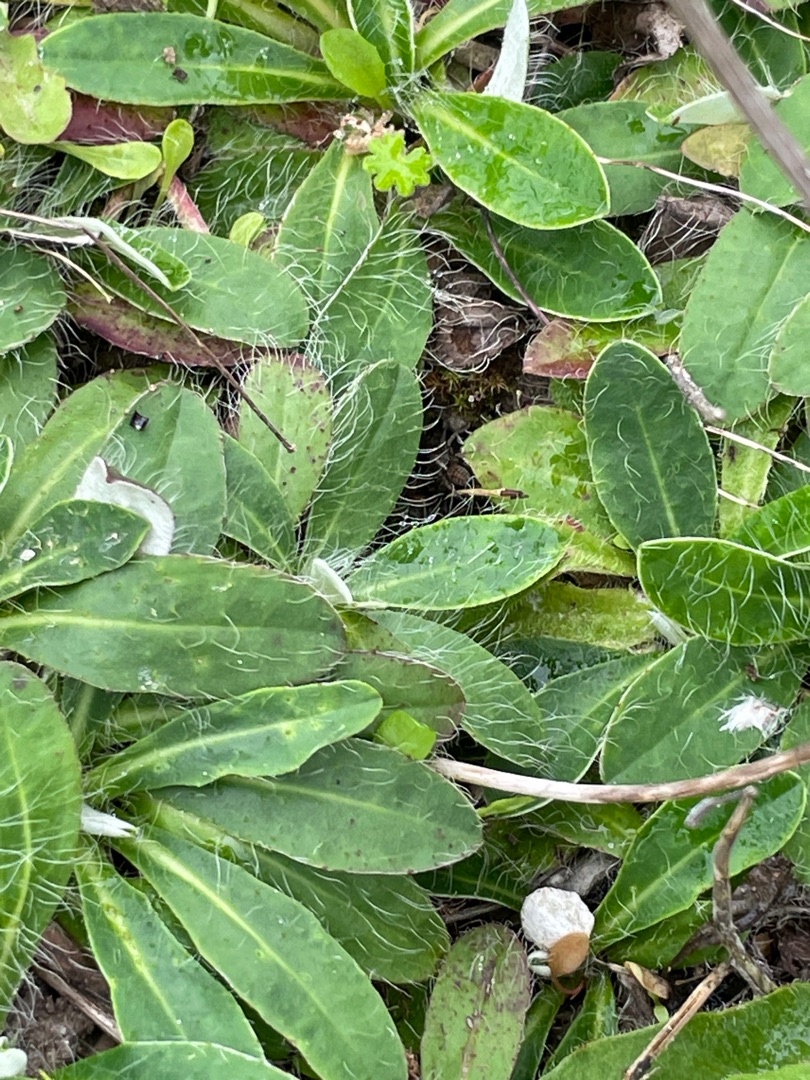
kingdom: Plantae
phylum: Tracheophyta
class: Magnoliopsida
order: Asterales
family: Asteraceae
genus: Pilosella
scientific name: Pilosella officinarum
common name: Håret høgeurt
